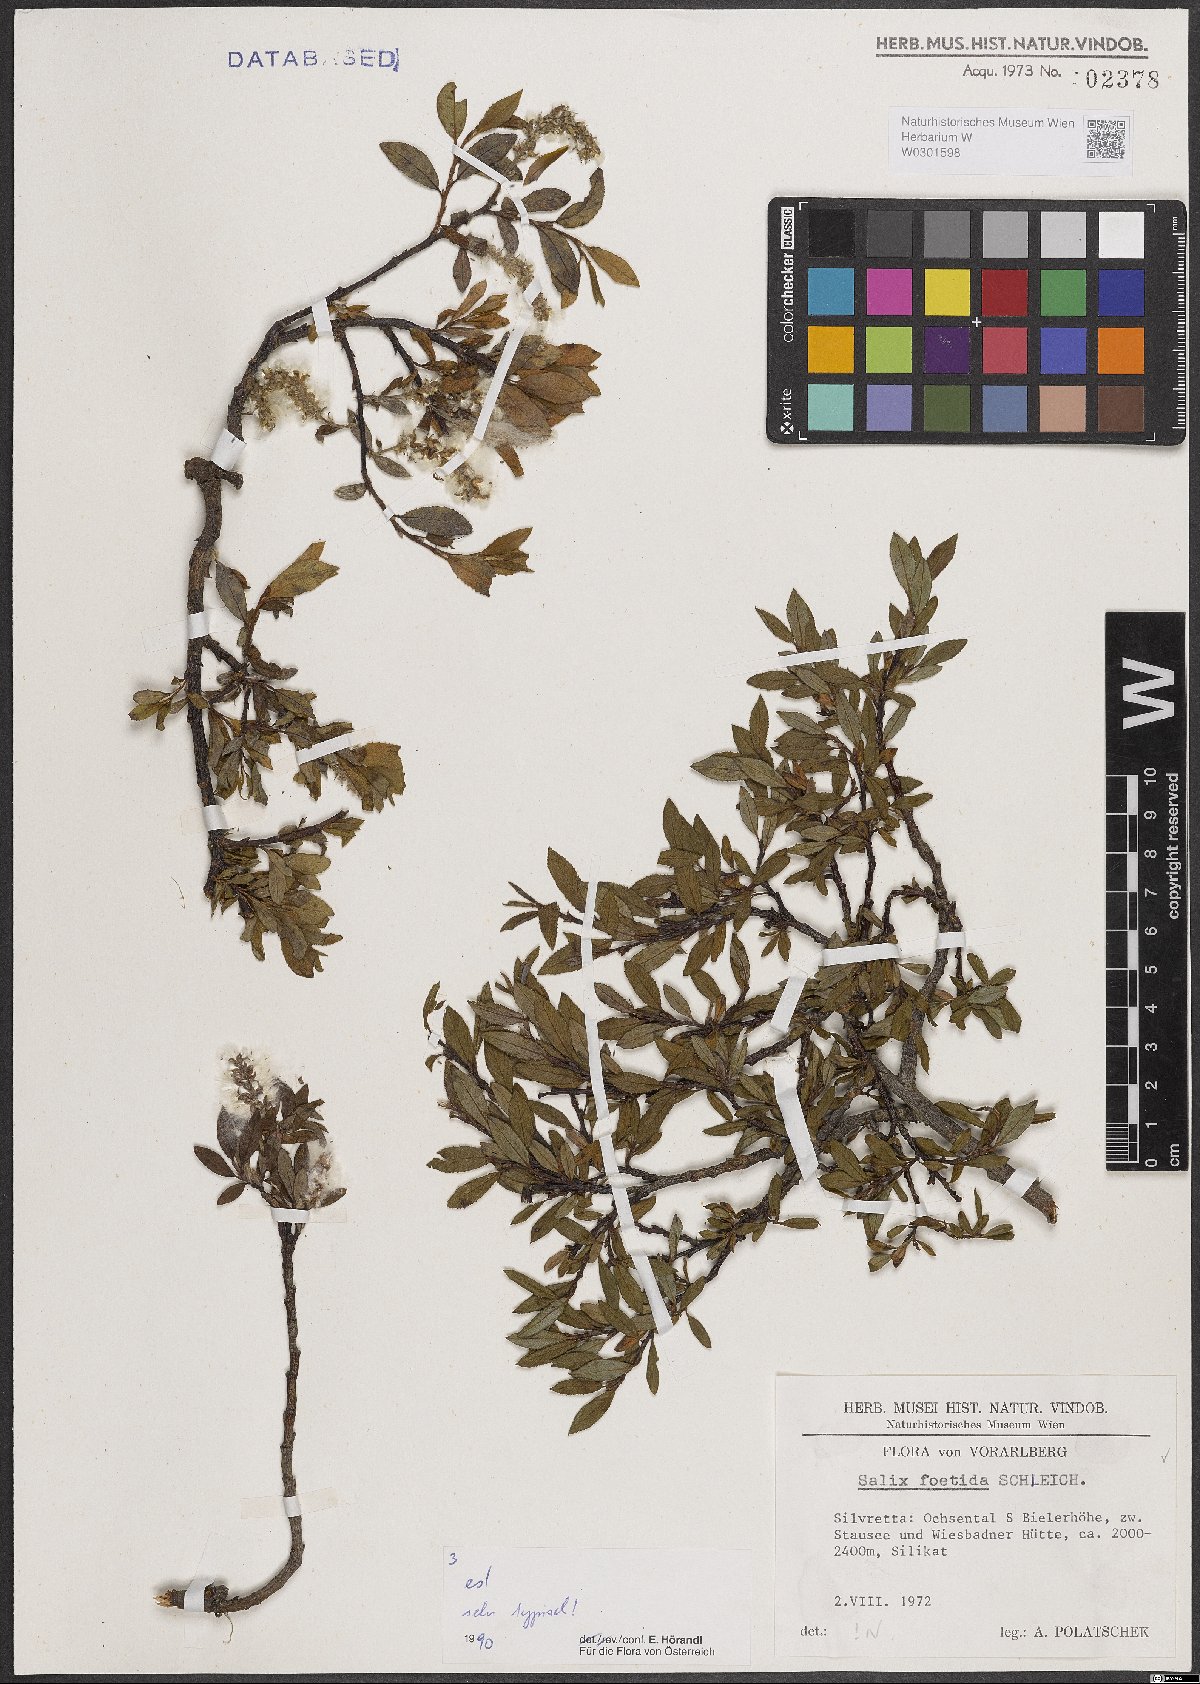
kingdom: Plantae
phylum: Tracheophyta
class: Magnoliopsida
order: Malpighiales
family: Salicaceae
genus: Salix
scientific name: Salix foetida
